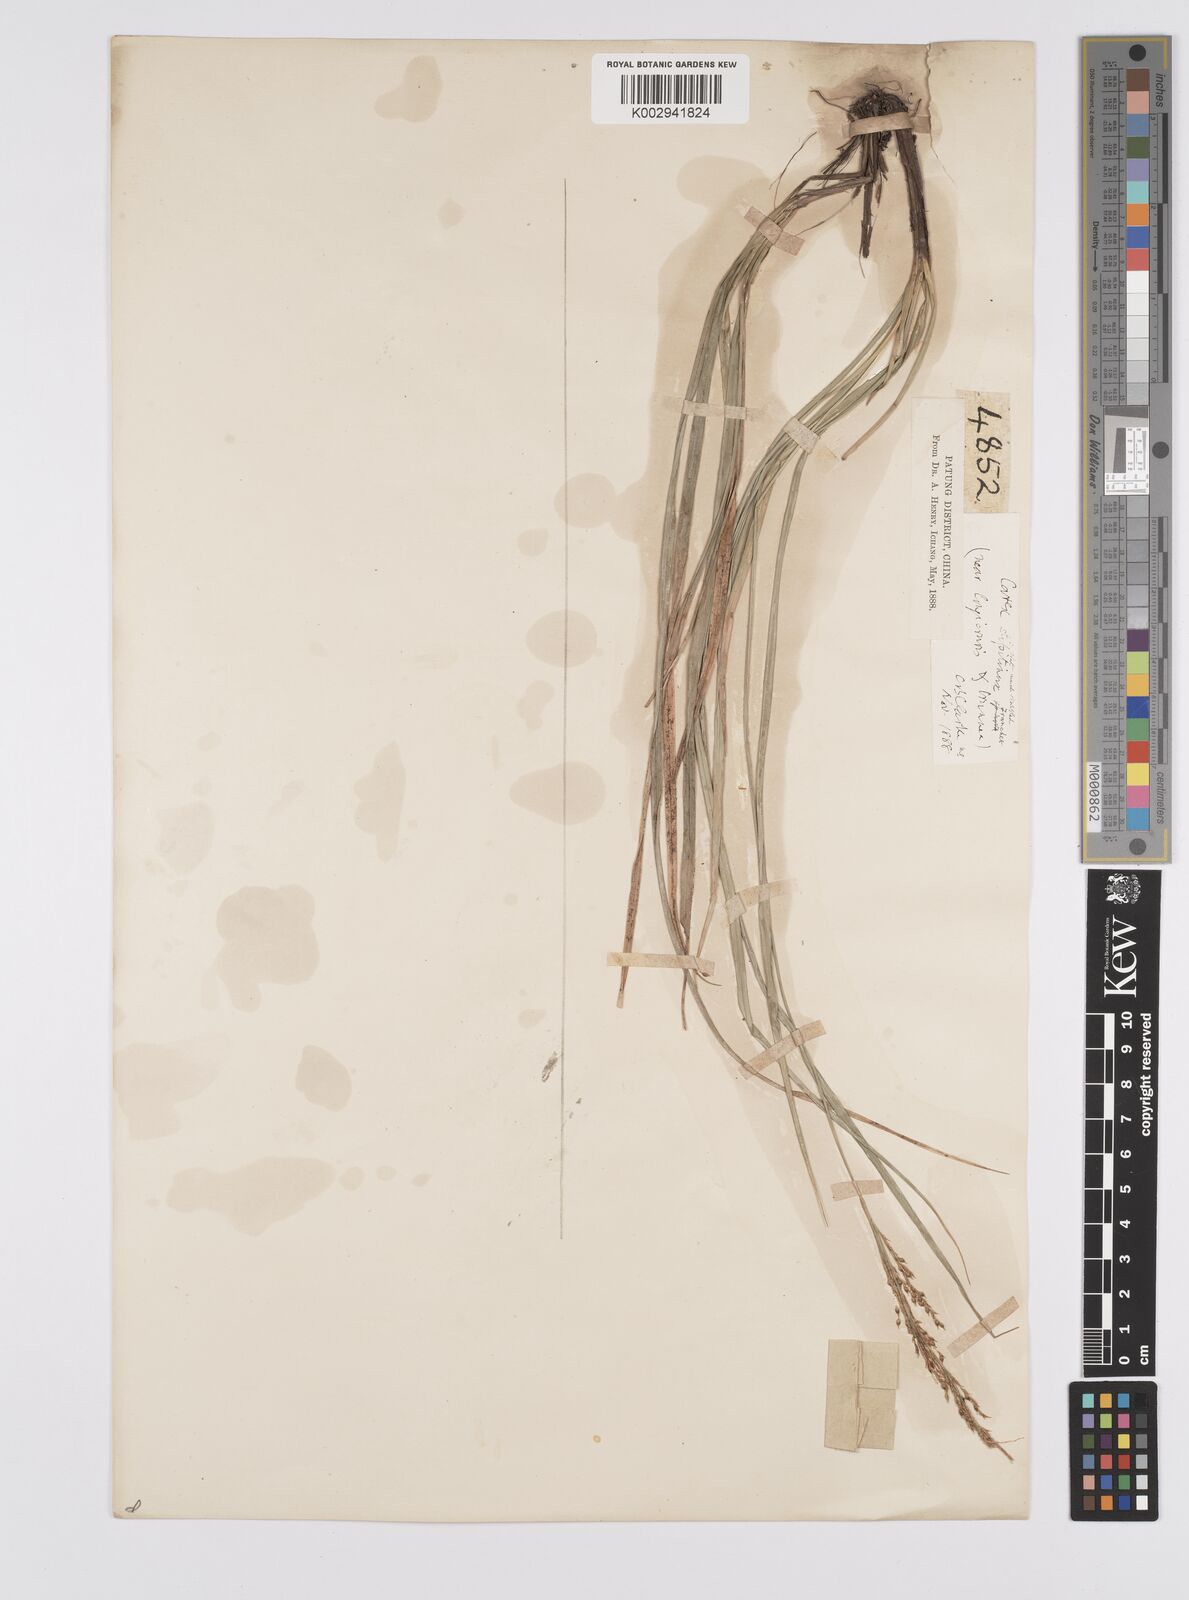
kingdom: Plantae
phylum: Tracheophyta
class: Liliopsida
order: Poales
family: Cyperaceae
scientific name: Cyperaceae
